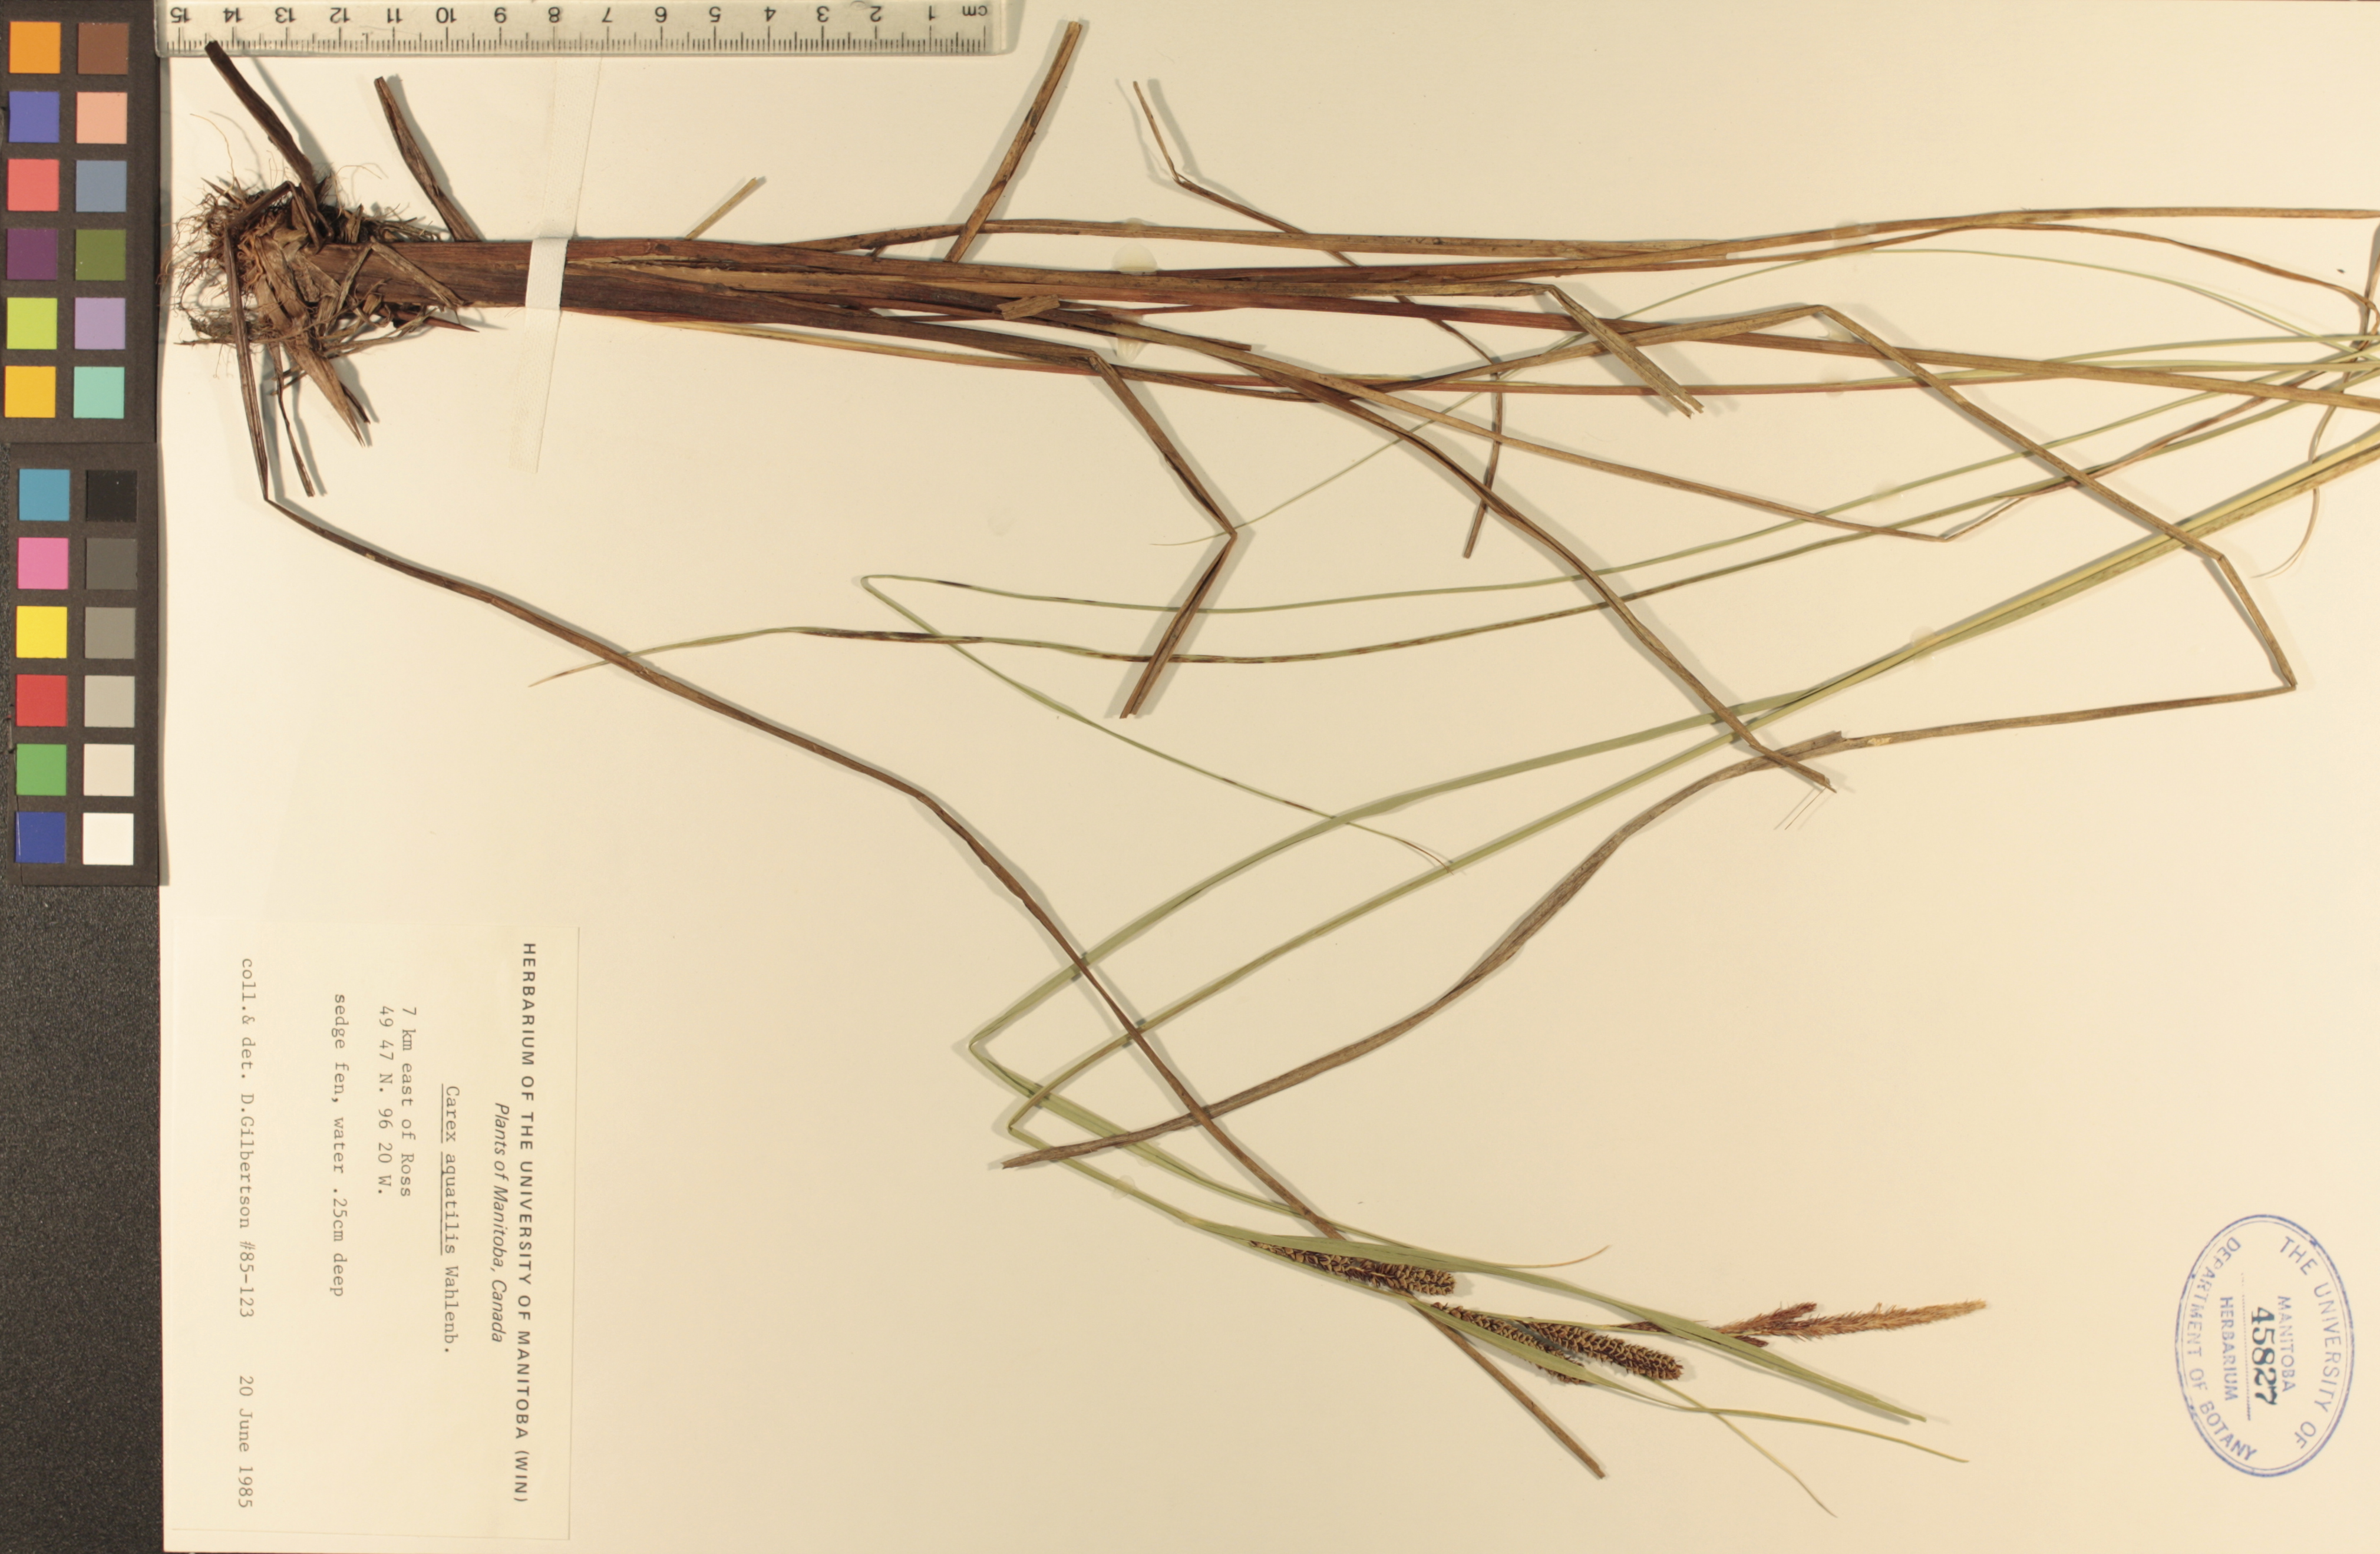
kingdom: Plantae
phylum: Tracheophyta
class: Liliopsida
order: Poales
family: Cyperaceae
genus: Carex
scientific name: Carex aquatilis
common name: Water sedge
